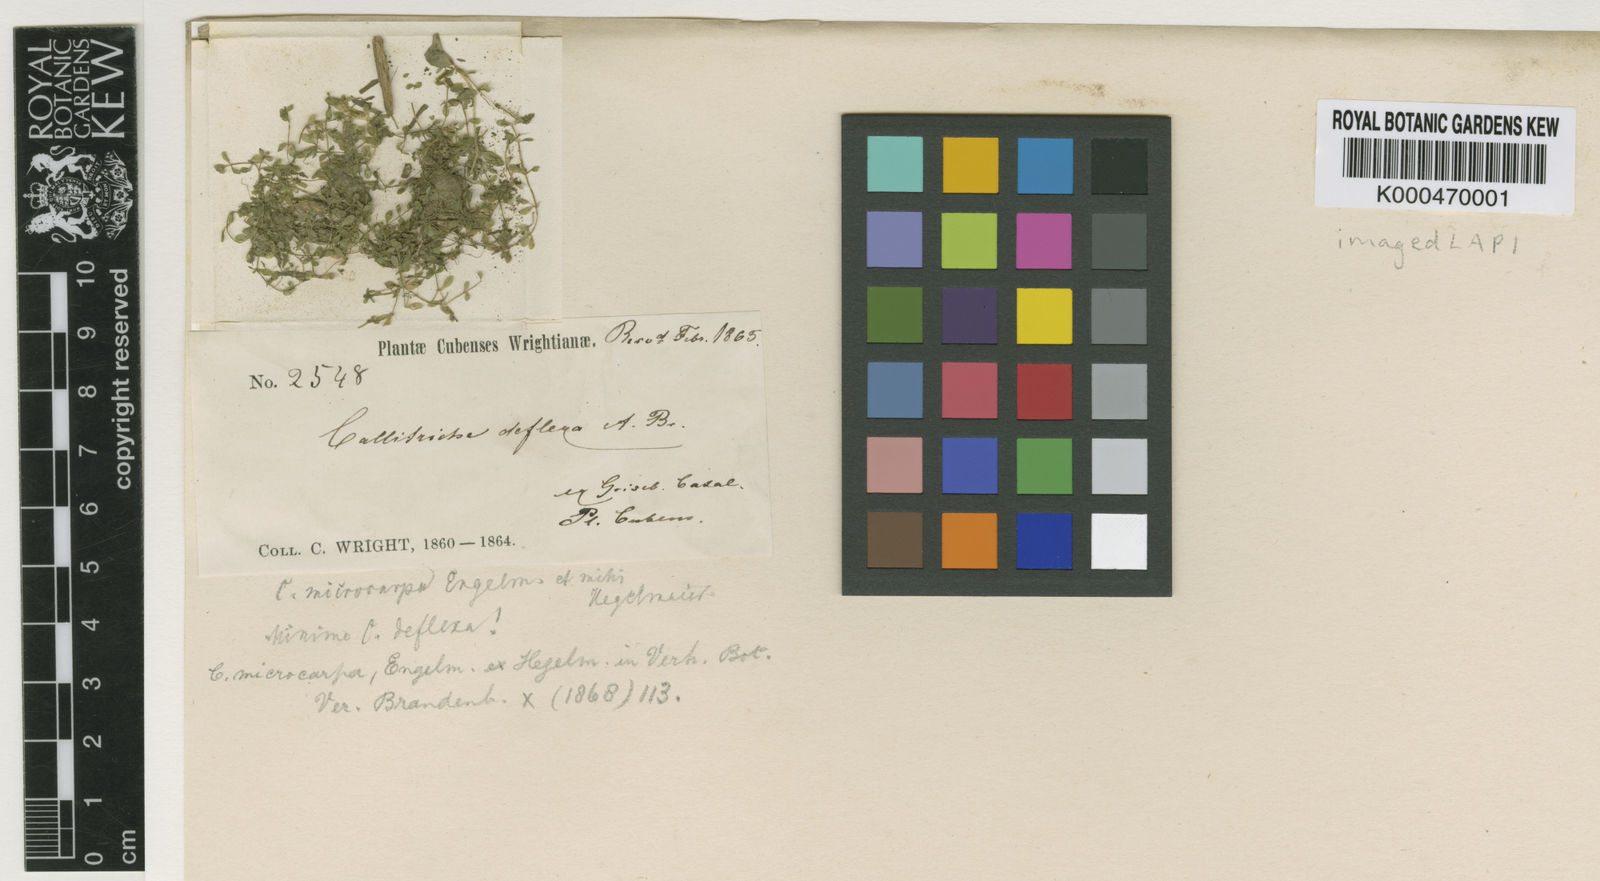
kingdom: Plantae
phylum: Tracheophyta
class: Magnoliopsida
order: Lamiales
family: Plantaginaceae
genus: Callitriche
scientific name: Callitriche occidentalis
